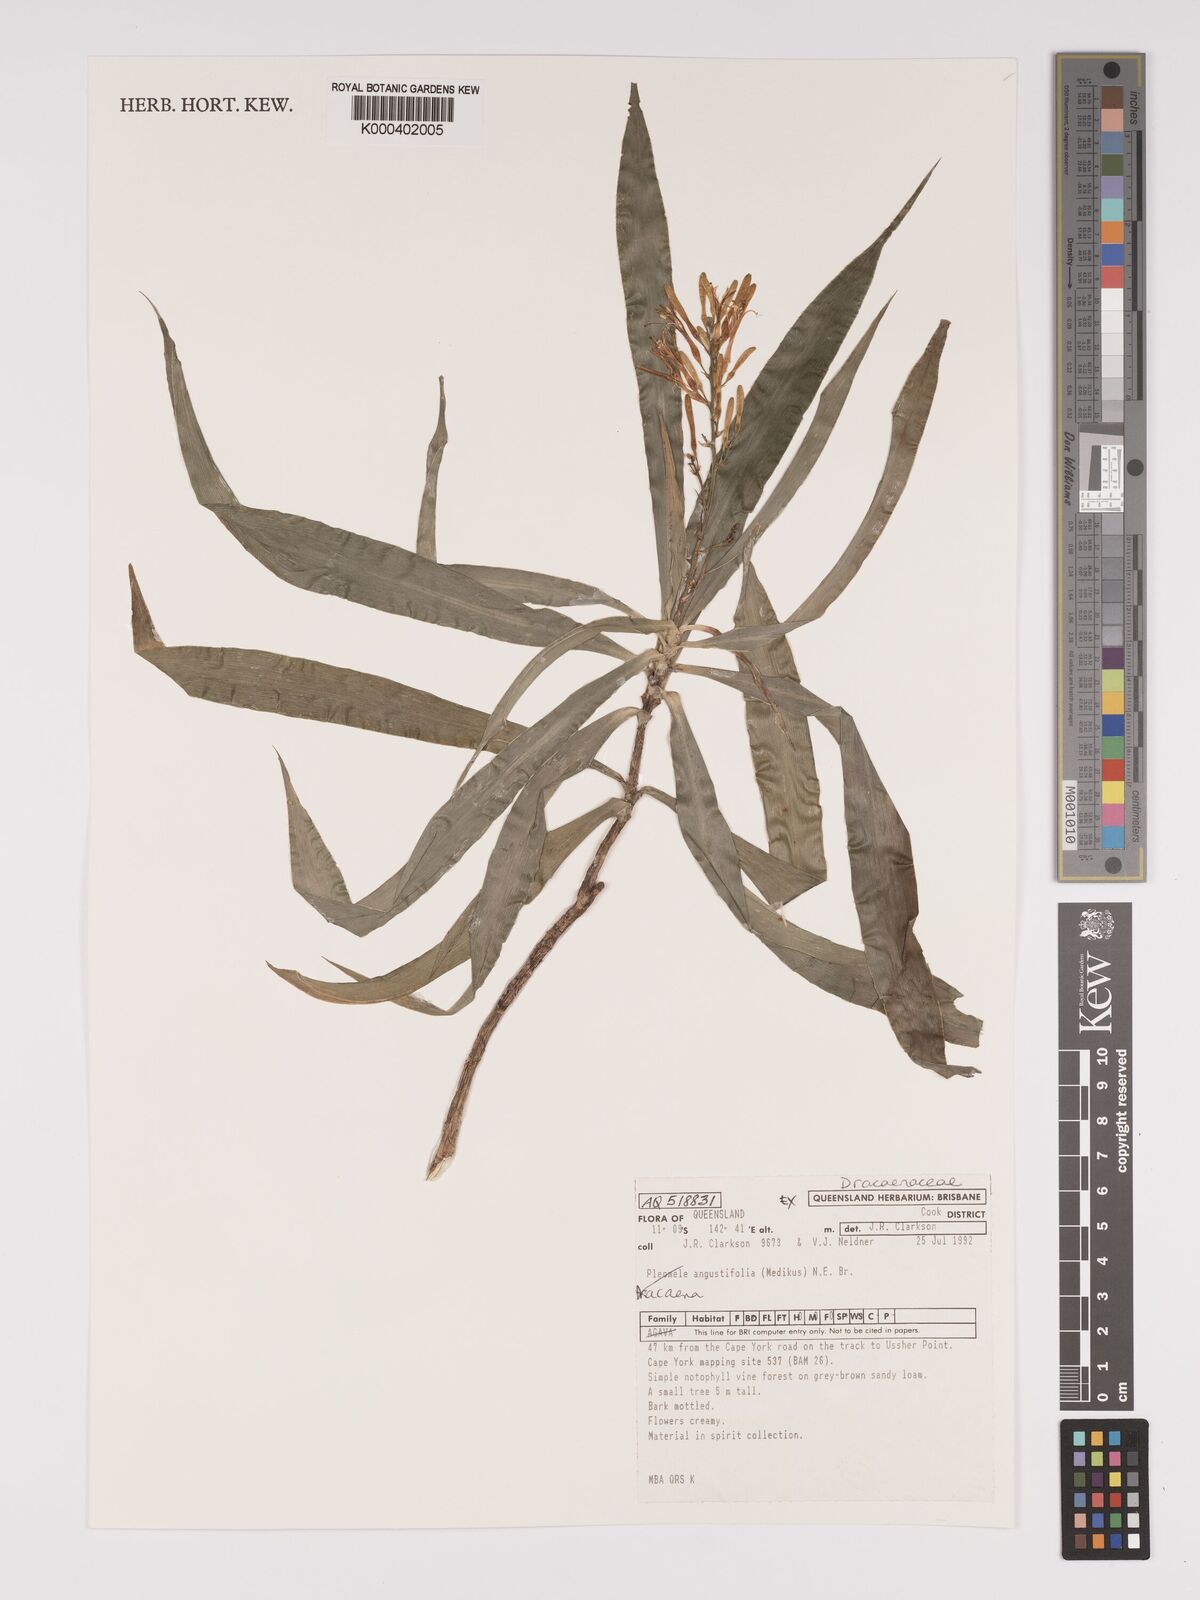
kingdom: Plantae
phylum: Tracheophyta
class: Liliopsida
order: Asparagales
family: Asparagaceae
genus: Dracaena
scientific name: Dracaena angustifolia
